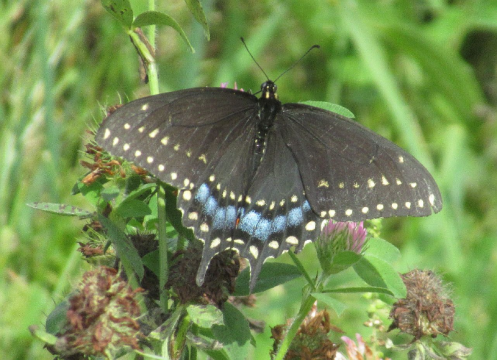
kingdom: Animalia
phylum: Arthropoda
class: Insecta
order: Lepidoptera
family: Papilionidae
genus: Papilio
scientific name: Papilio polyxenes
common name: Black Swallowtail
